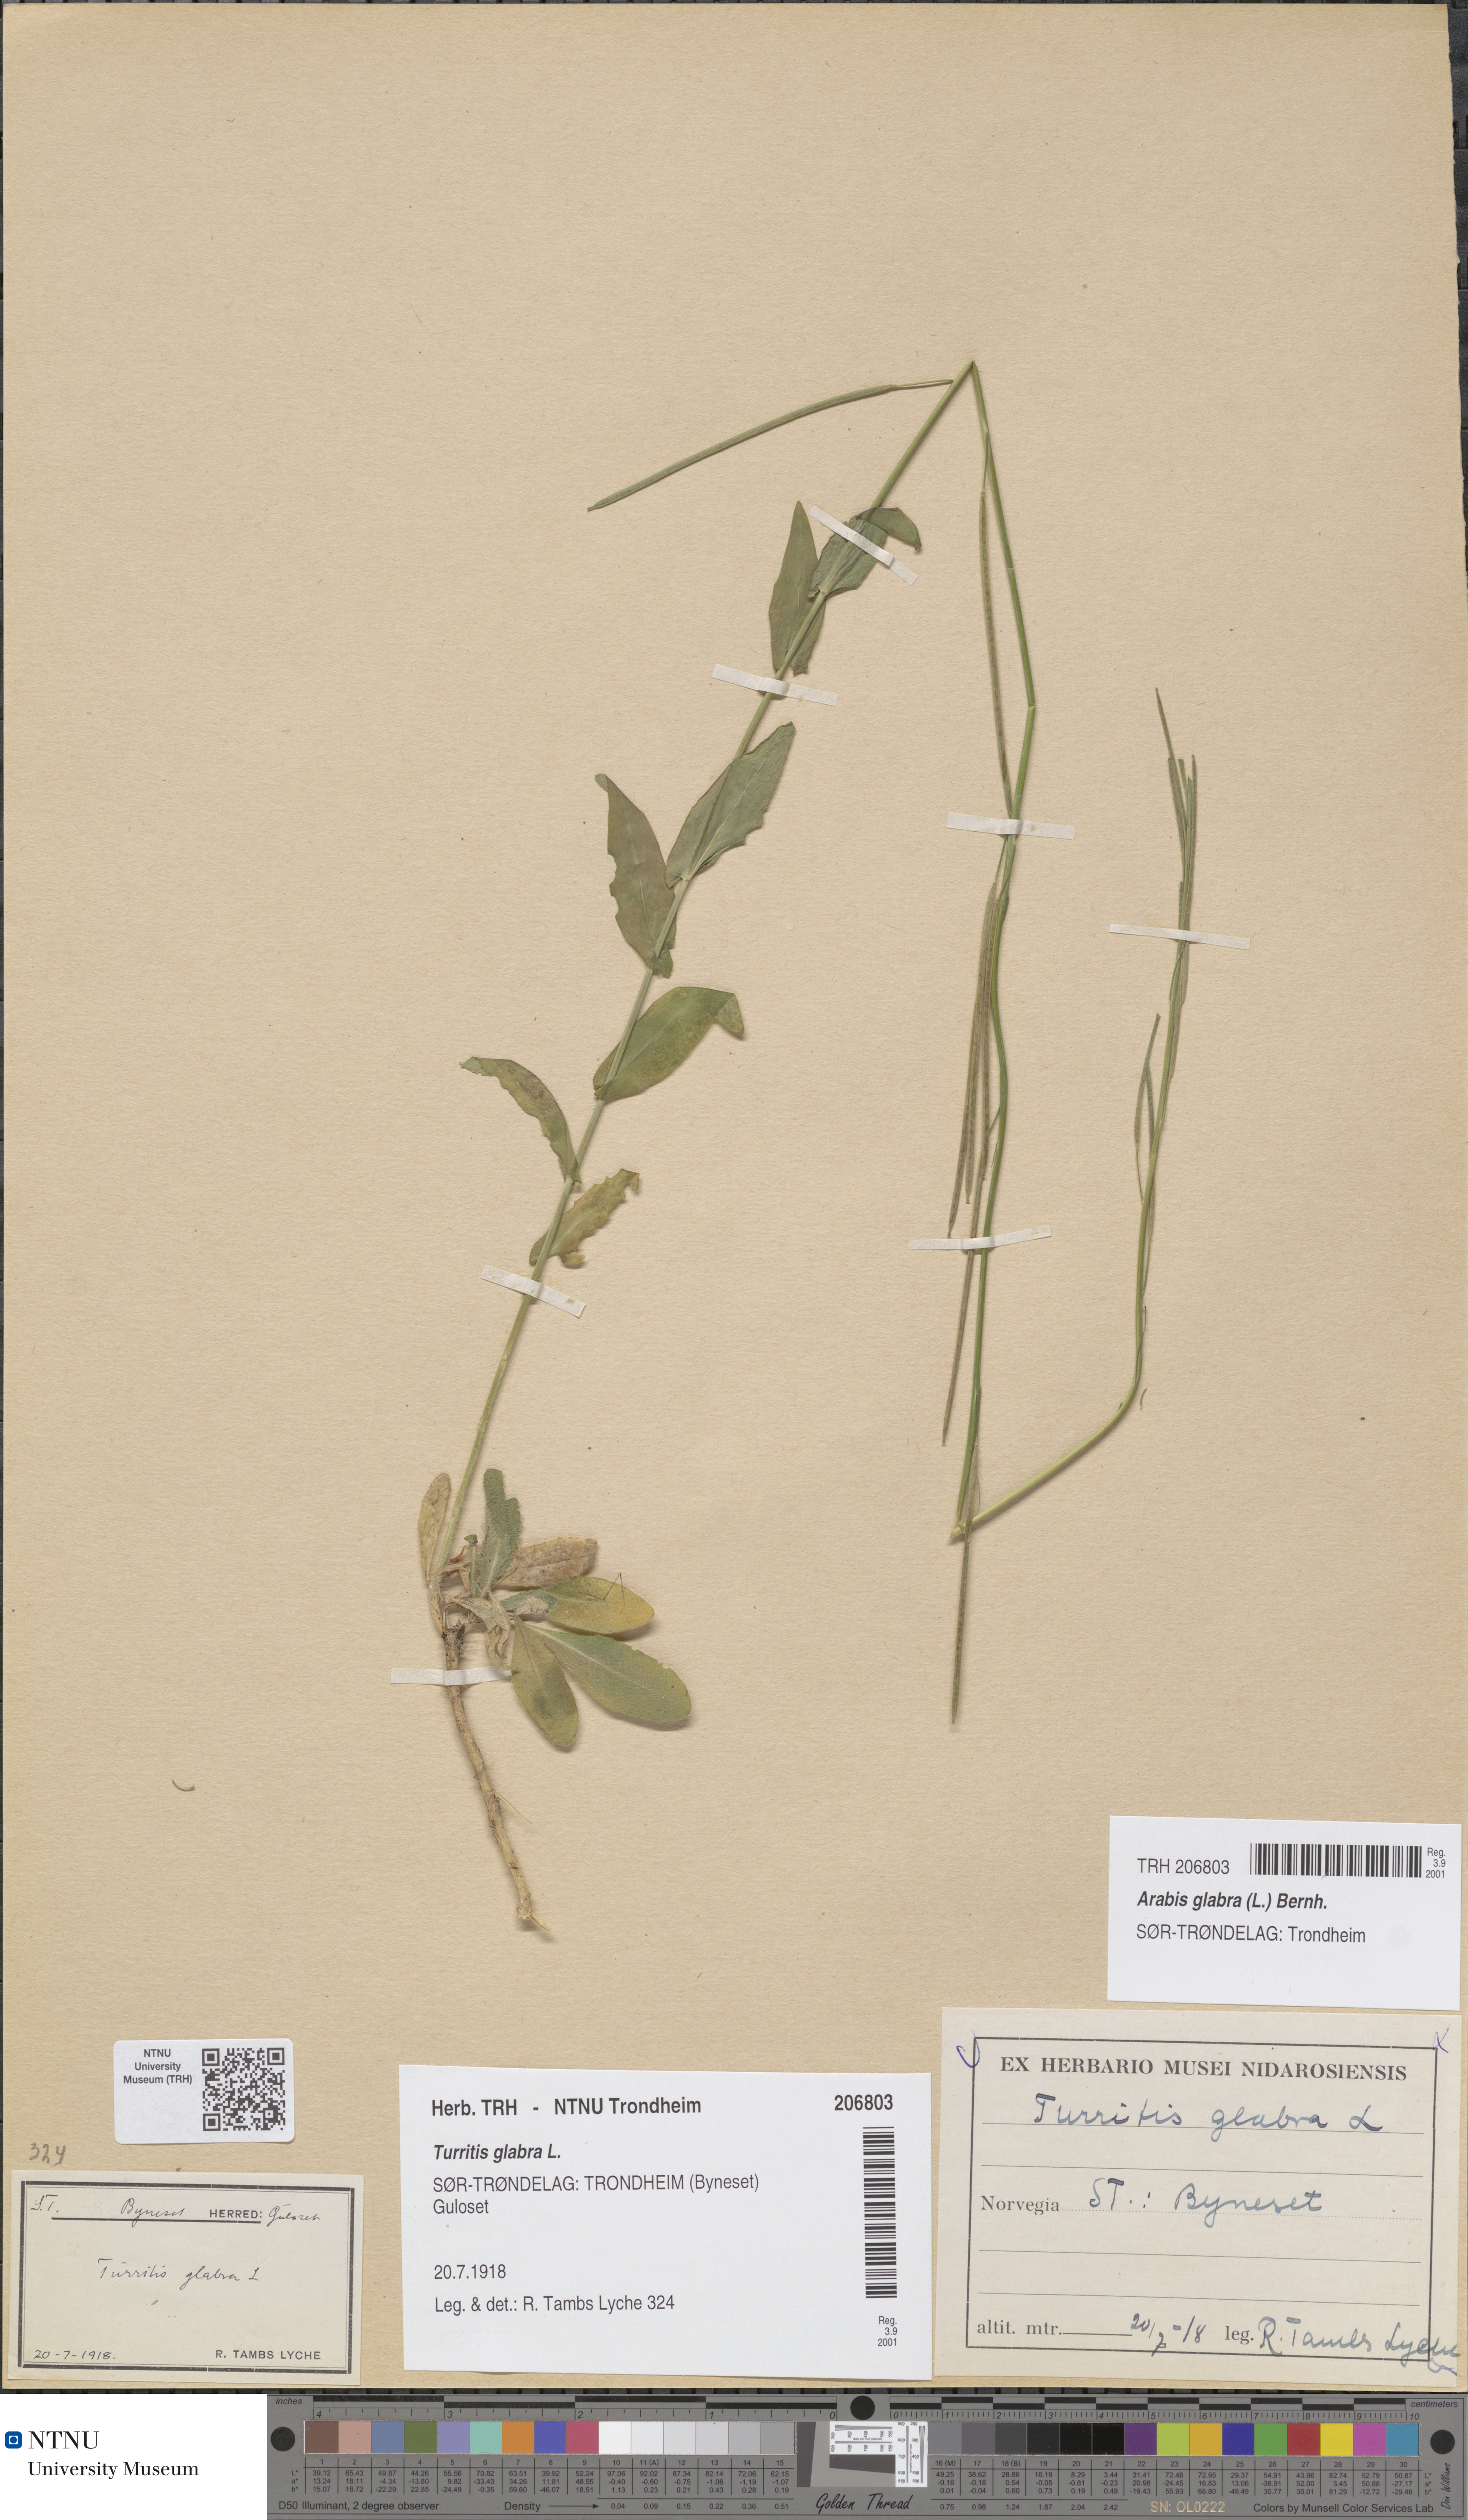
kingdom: Plantae
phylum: Tracheophyta
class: Magnoliopsida
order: Brassicales
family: Brassicaceae
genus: Turritis
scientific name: Turritis glabra
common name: Tower rockcress
